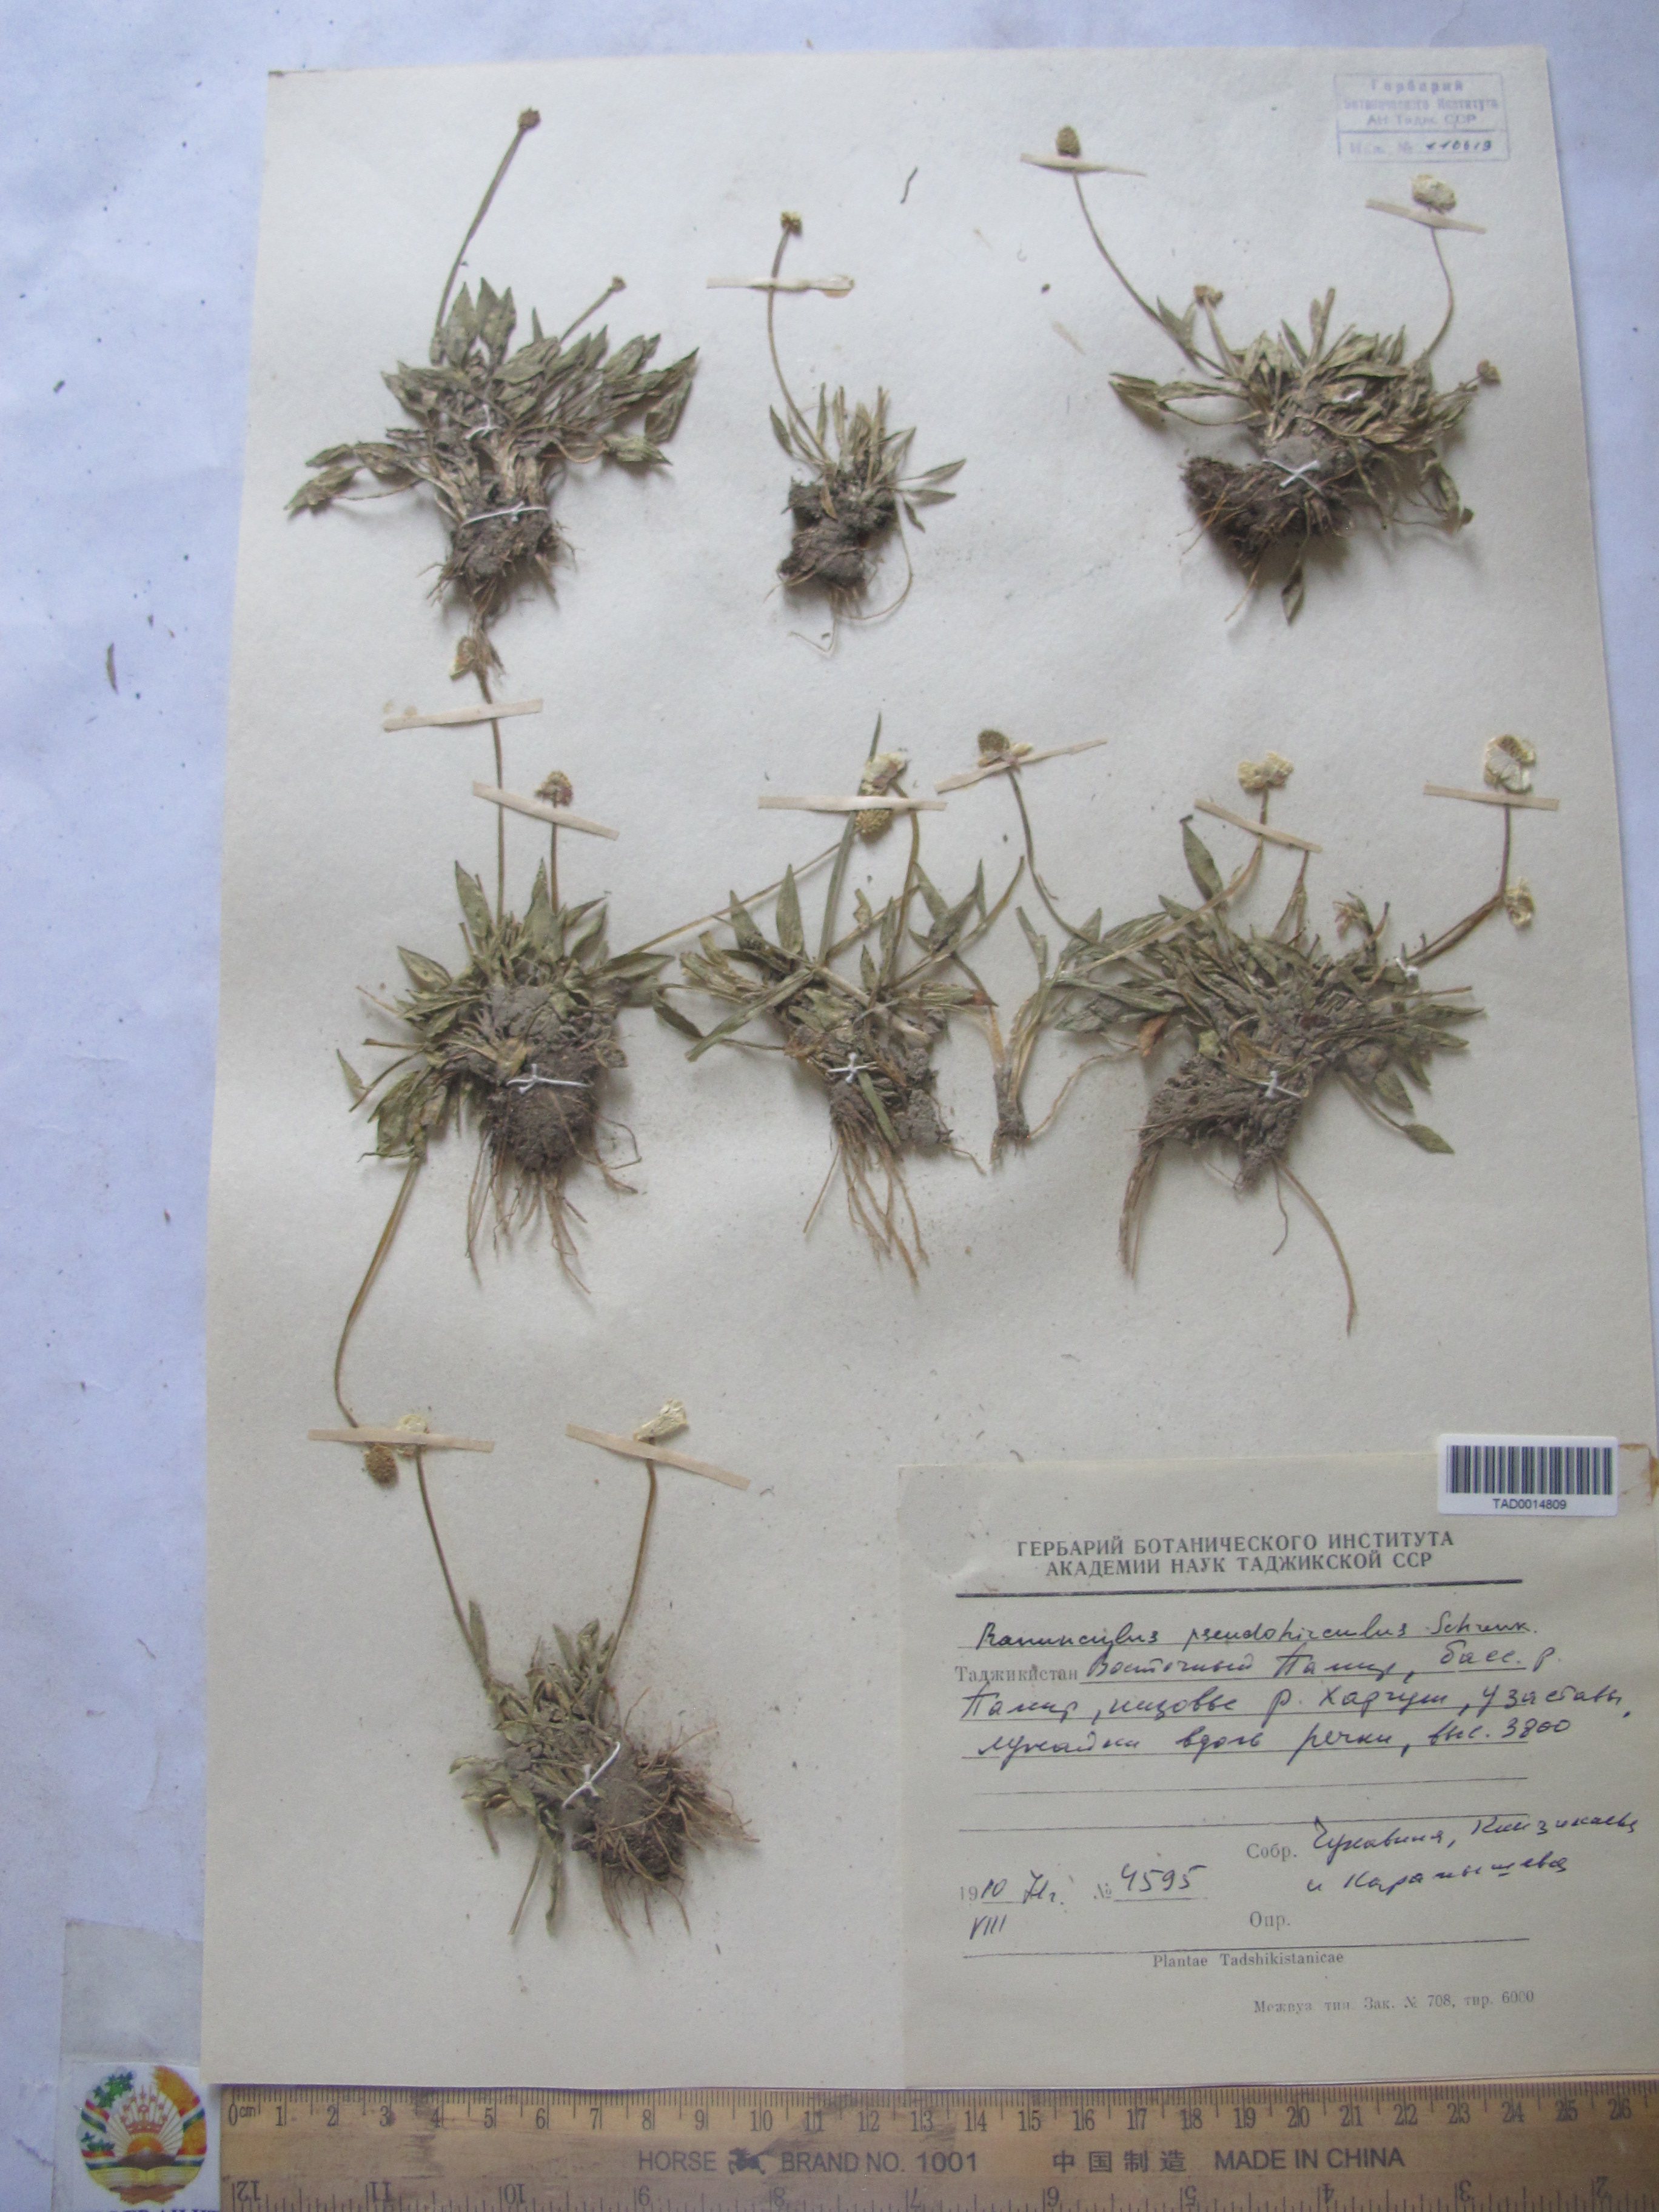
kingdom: Plantae
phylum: Tracheophyta
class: Magnoliopsida
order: Ranunculales
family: Ranunculaceae
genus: Ranunculus
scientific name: Ranunculus pseudohirculus
